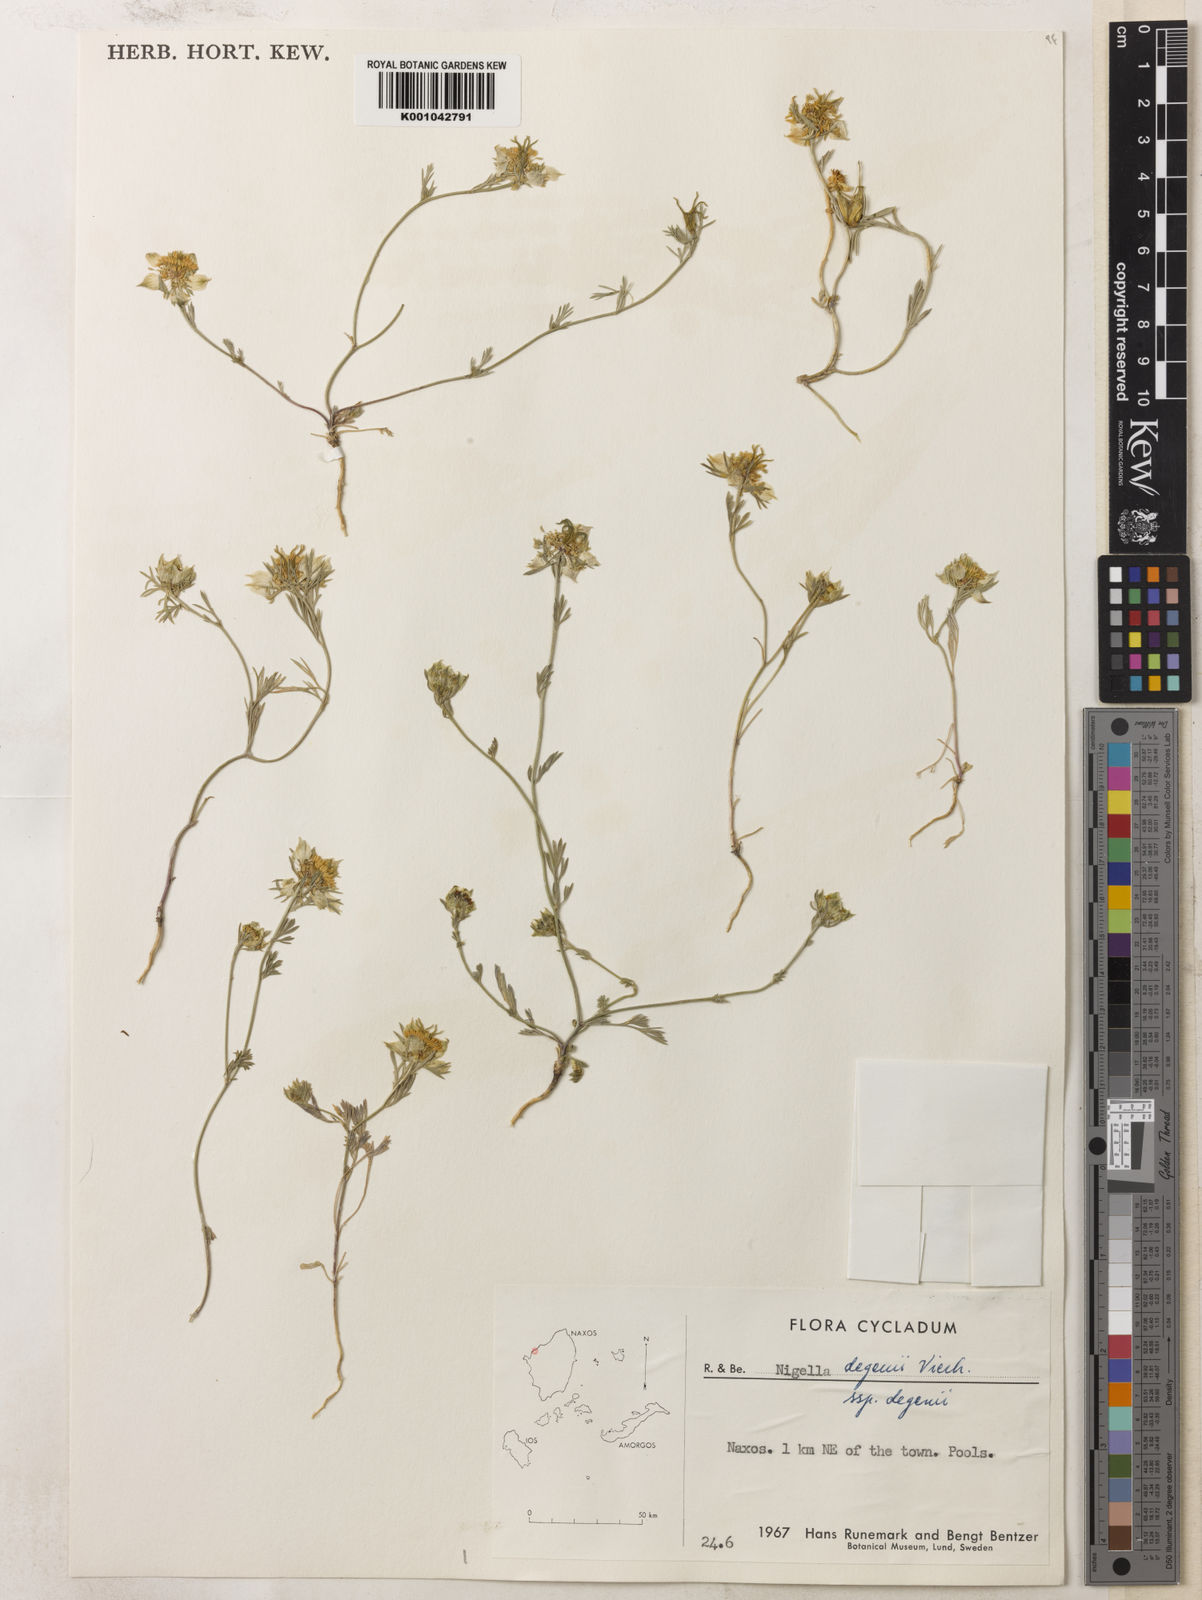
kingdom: Plantae
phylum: Tracheophyta
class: Magnoliopsida
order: Ranunculales
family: Ranunculaceae
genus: Nigella
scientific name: Nigella degenii
